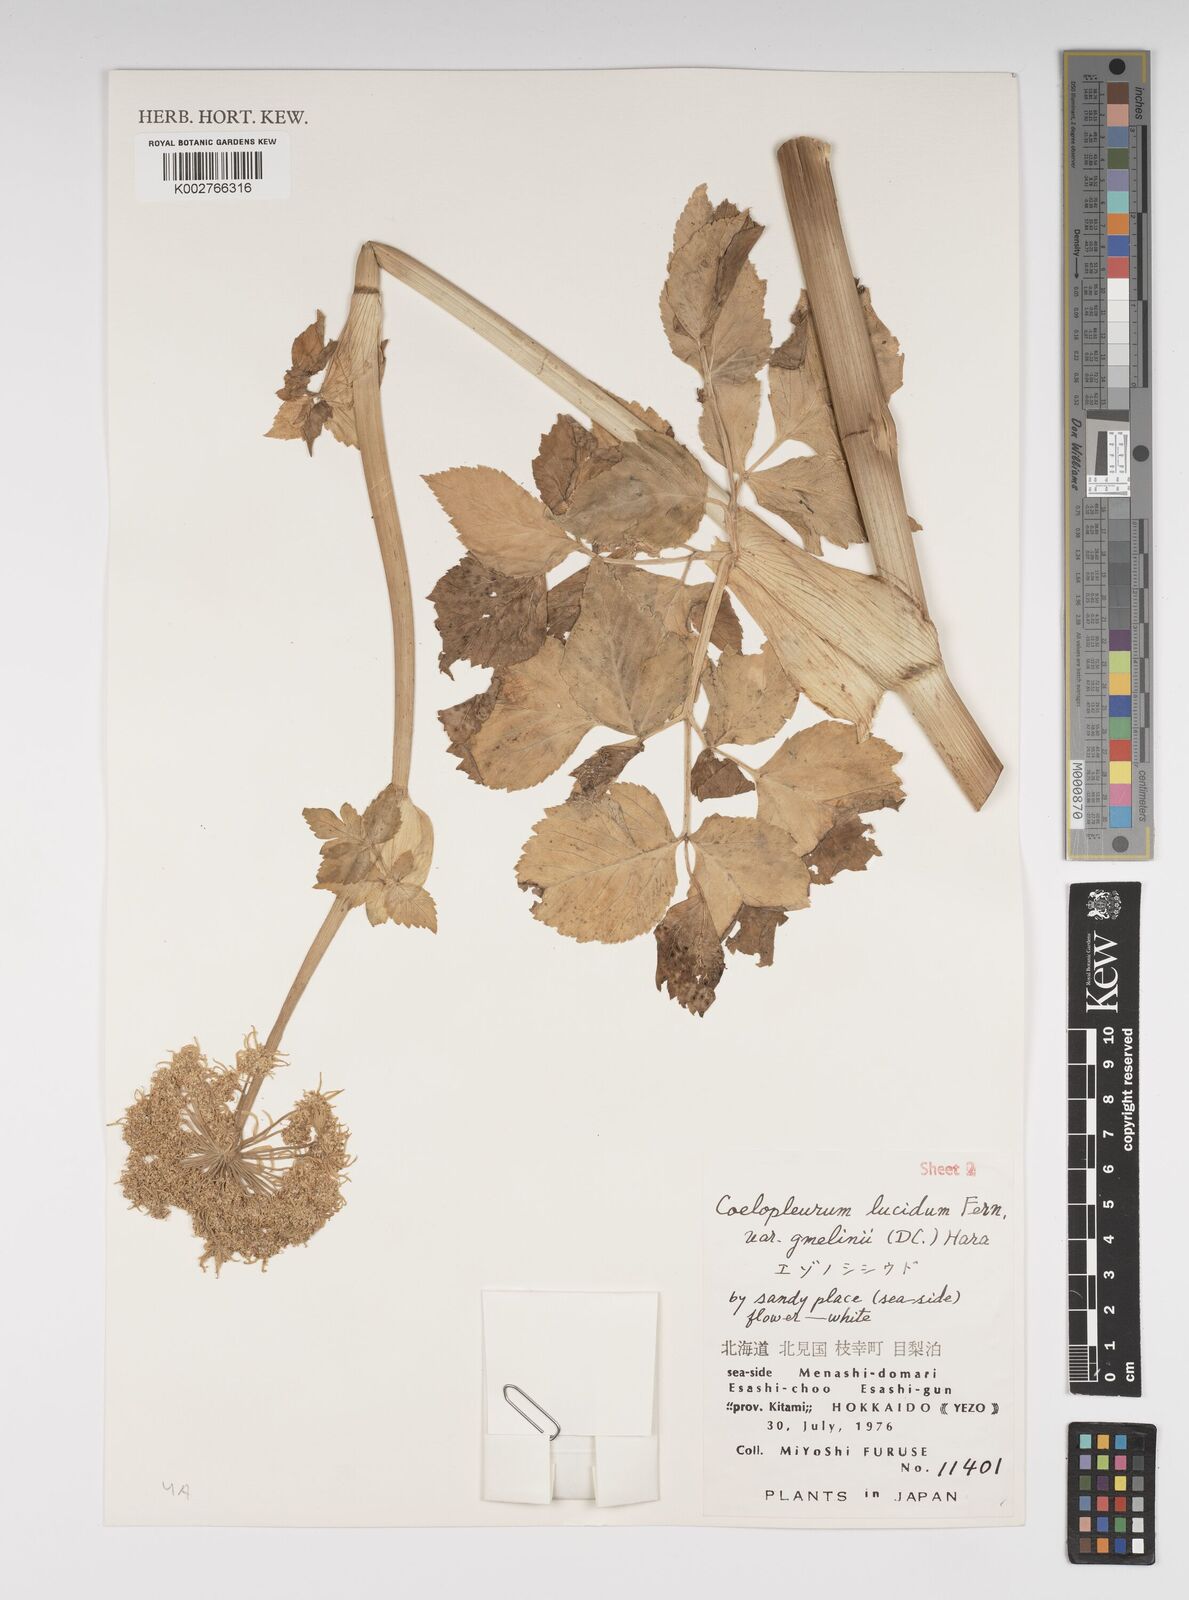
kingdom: Plantae
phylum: Tracheophyta
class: Magnoliopsida
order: Apiales
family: Apiaceae
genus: Angelica
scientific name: Angelica gmelinii
